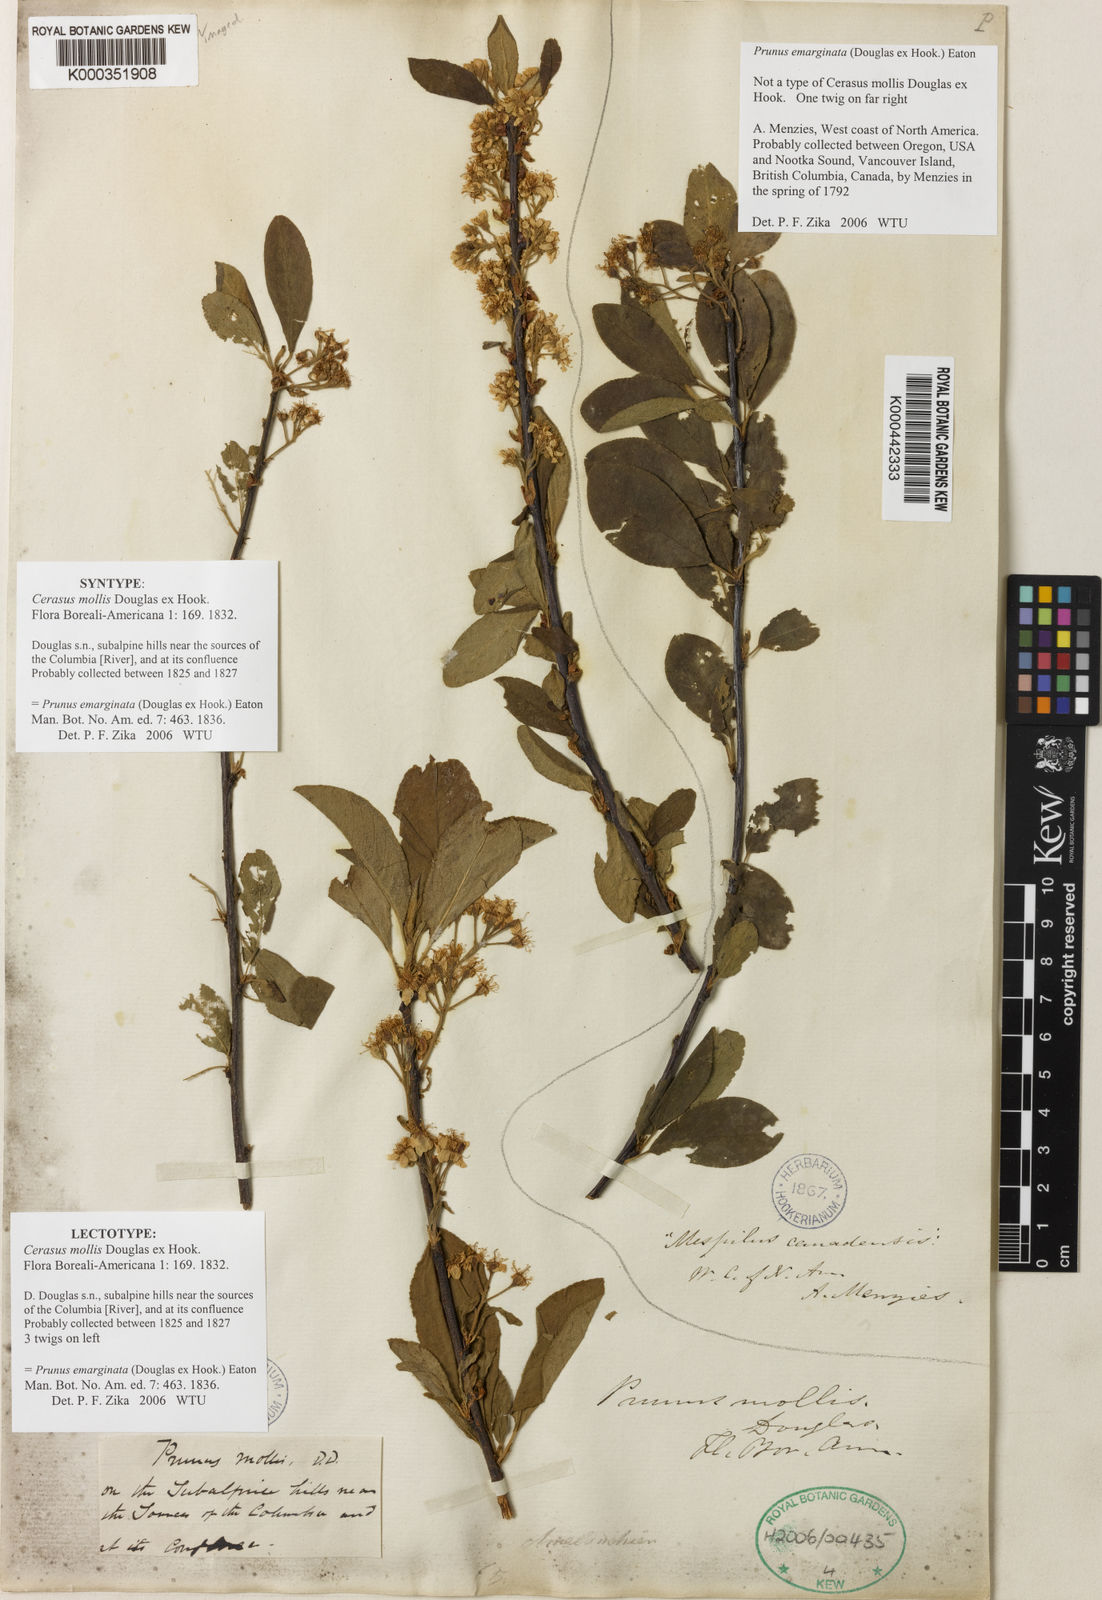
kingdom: Plantae
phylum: Tracheophyta
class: Magnoliopsida
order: Rosales
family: Rosaceae
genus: Prunus
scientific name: Prunus emarginata
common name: Bitter cherry
